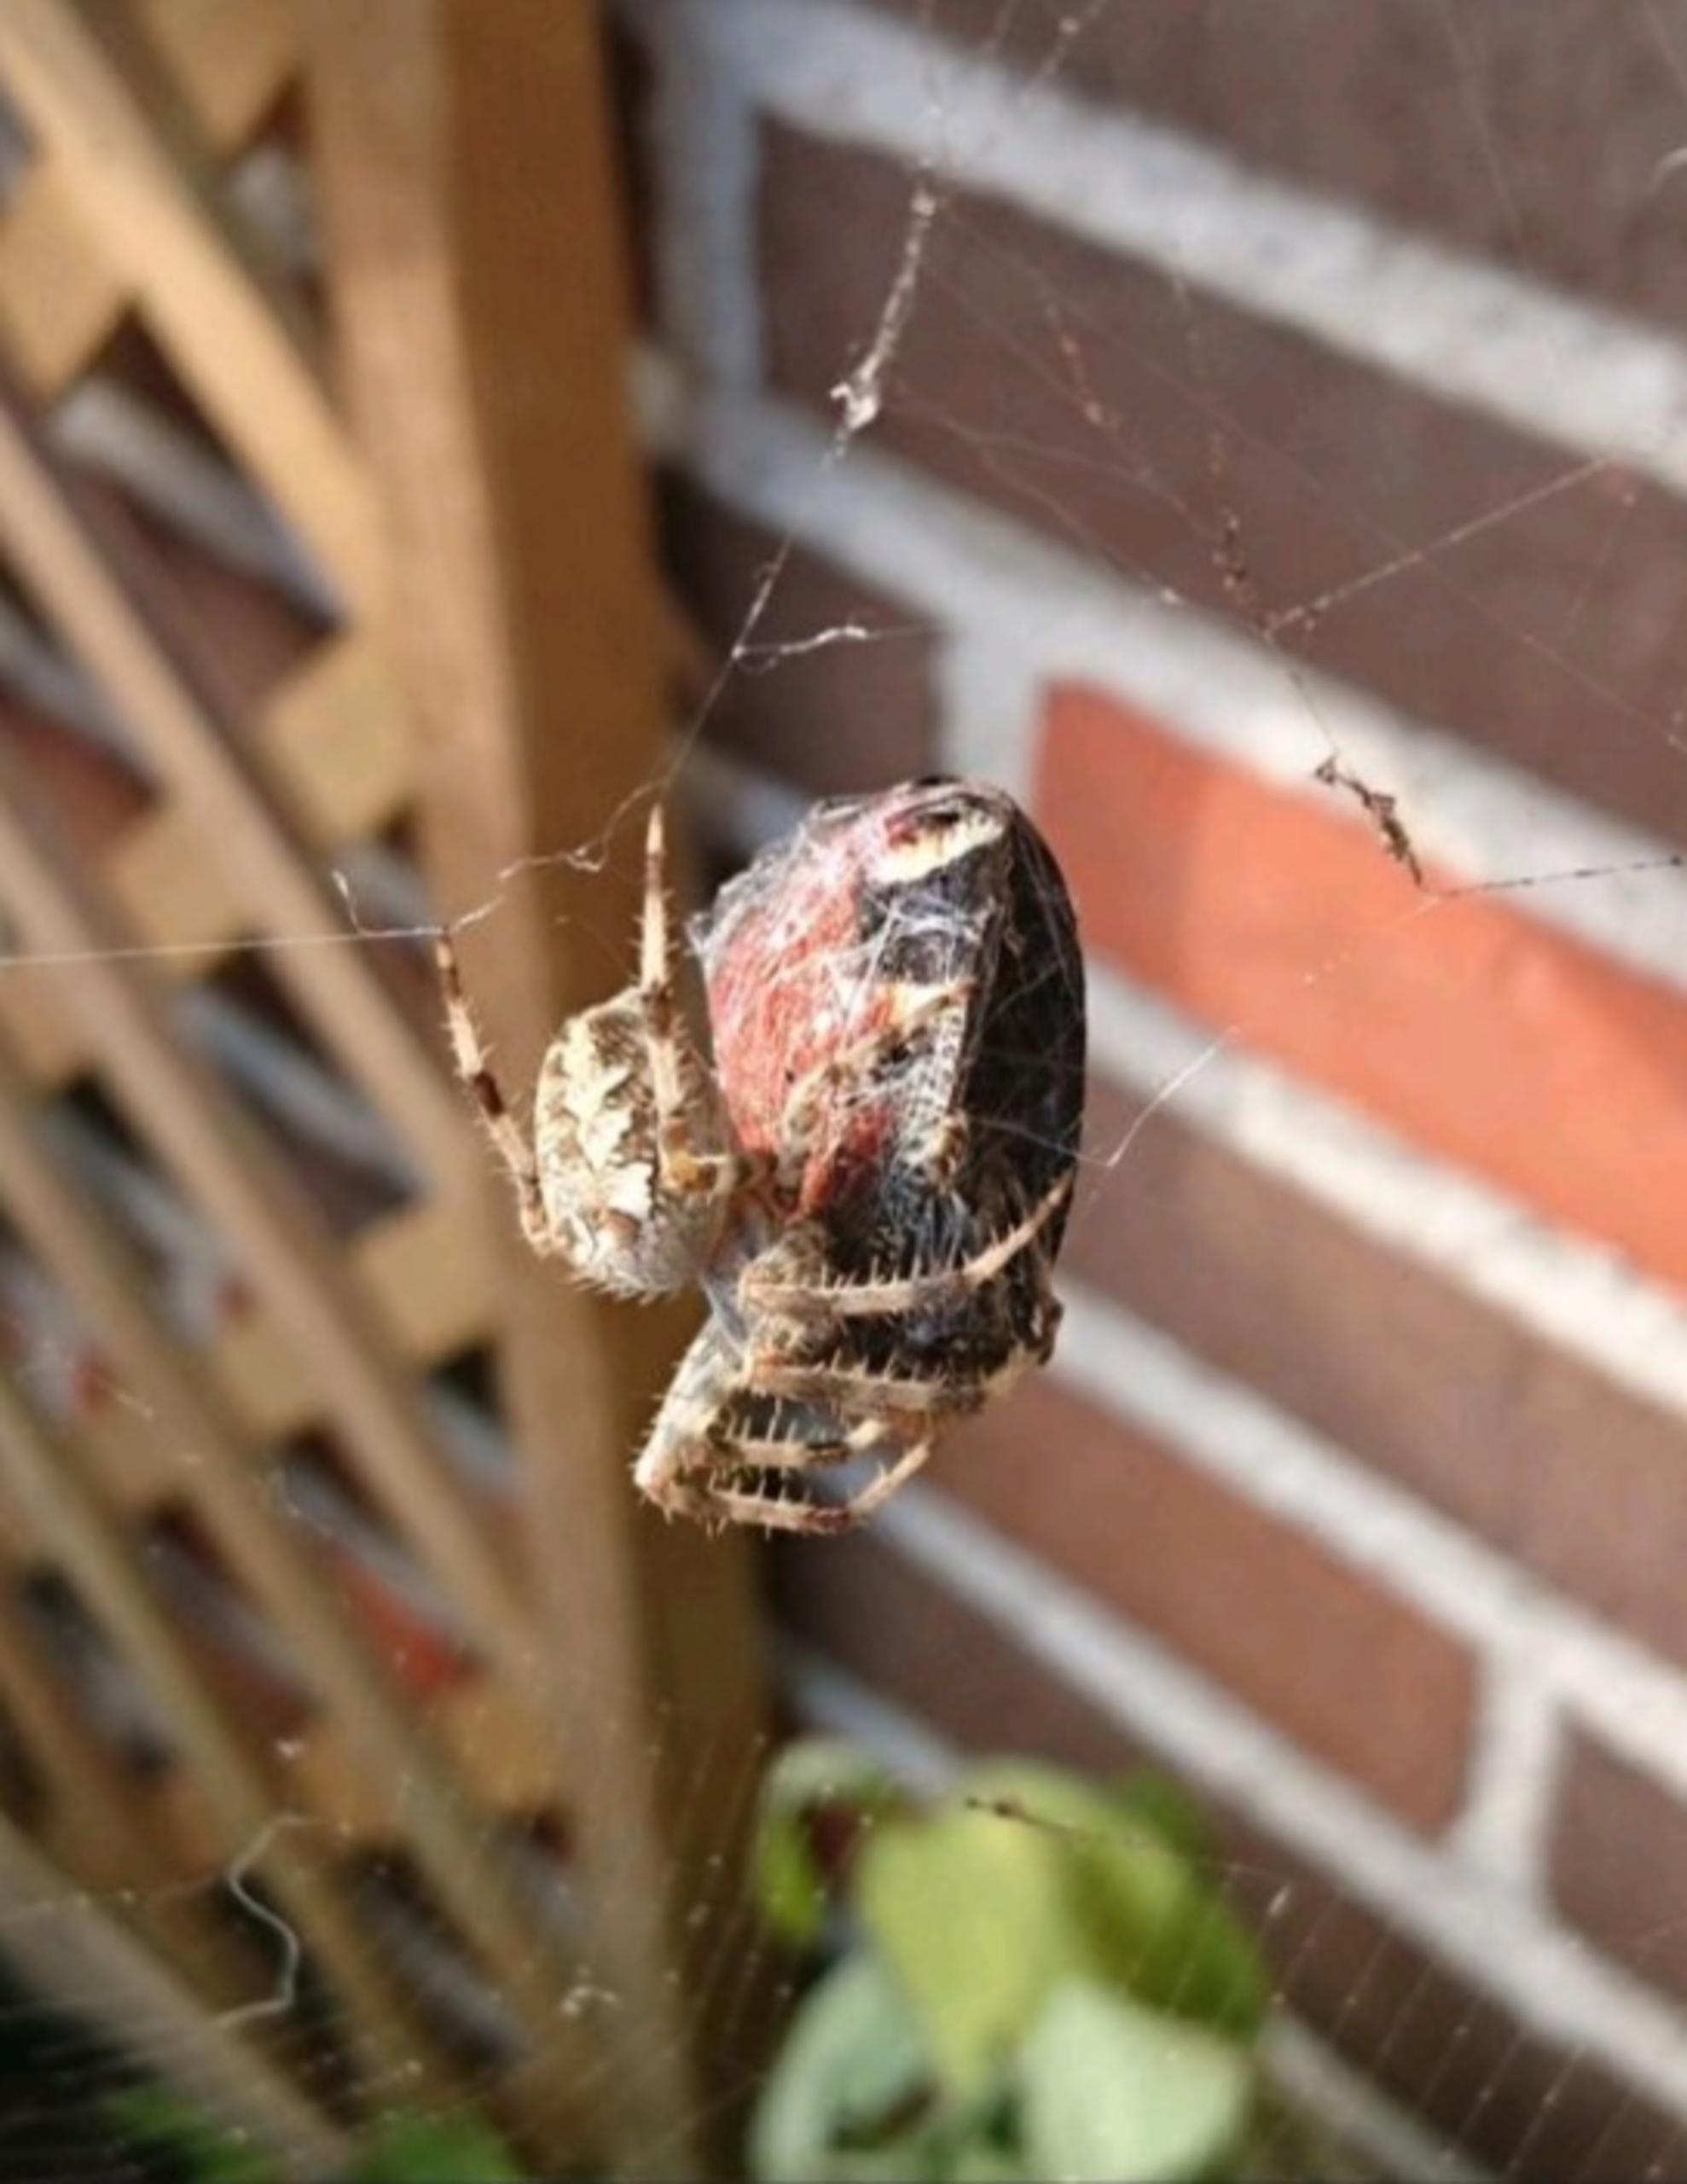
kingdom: Animalia
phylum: Arthropoda
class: Arachnida
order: Araneae
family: Araneidae
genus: Araneus
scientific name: Araneus diadematus
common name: Korsedderkop
